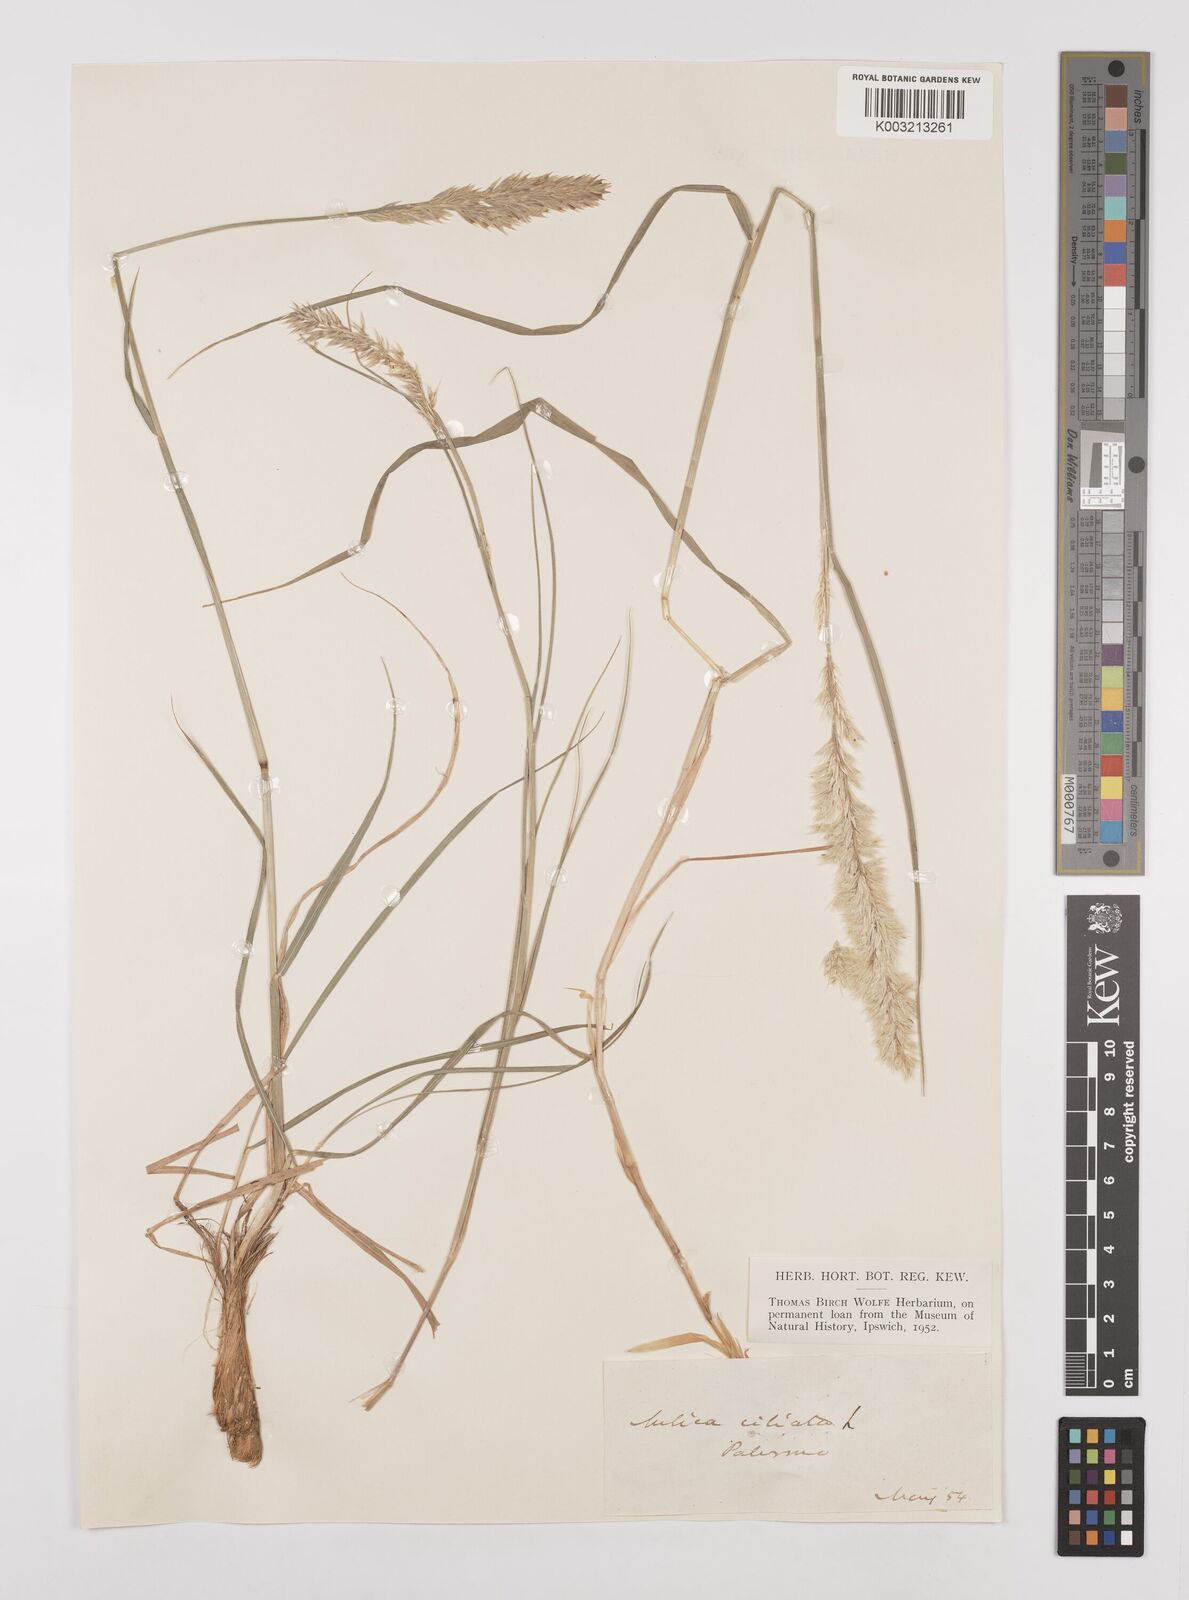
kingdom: Plantae
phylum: Tracheophyta
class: Liliopsida
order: Poales
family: Poaceae
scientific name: Poaceae
